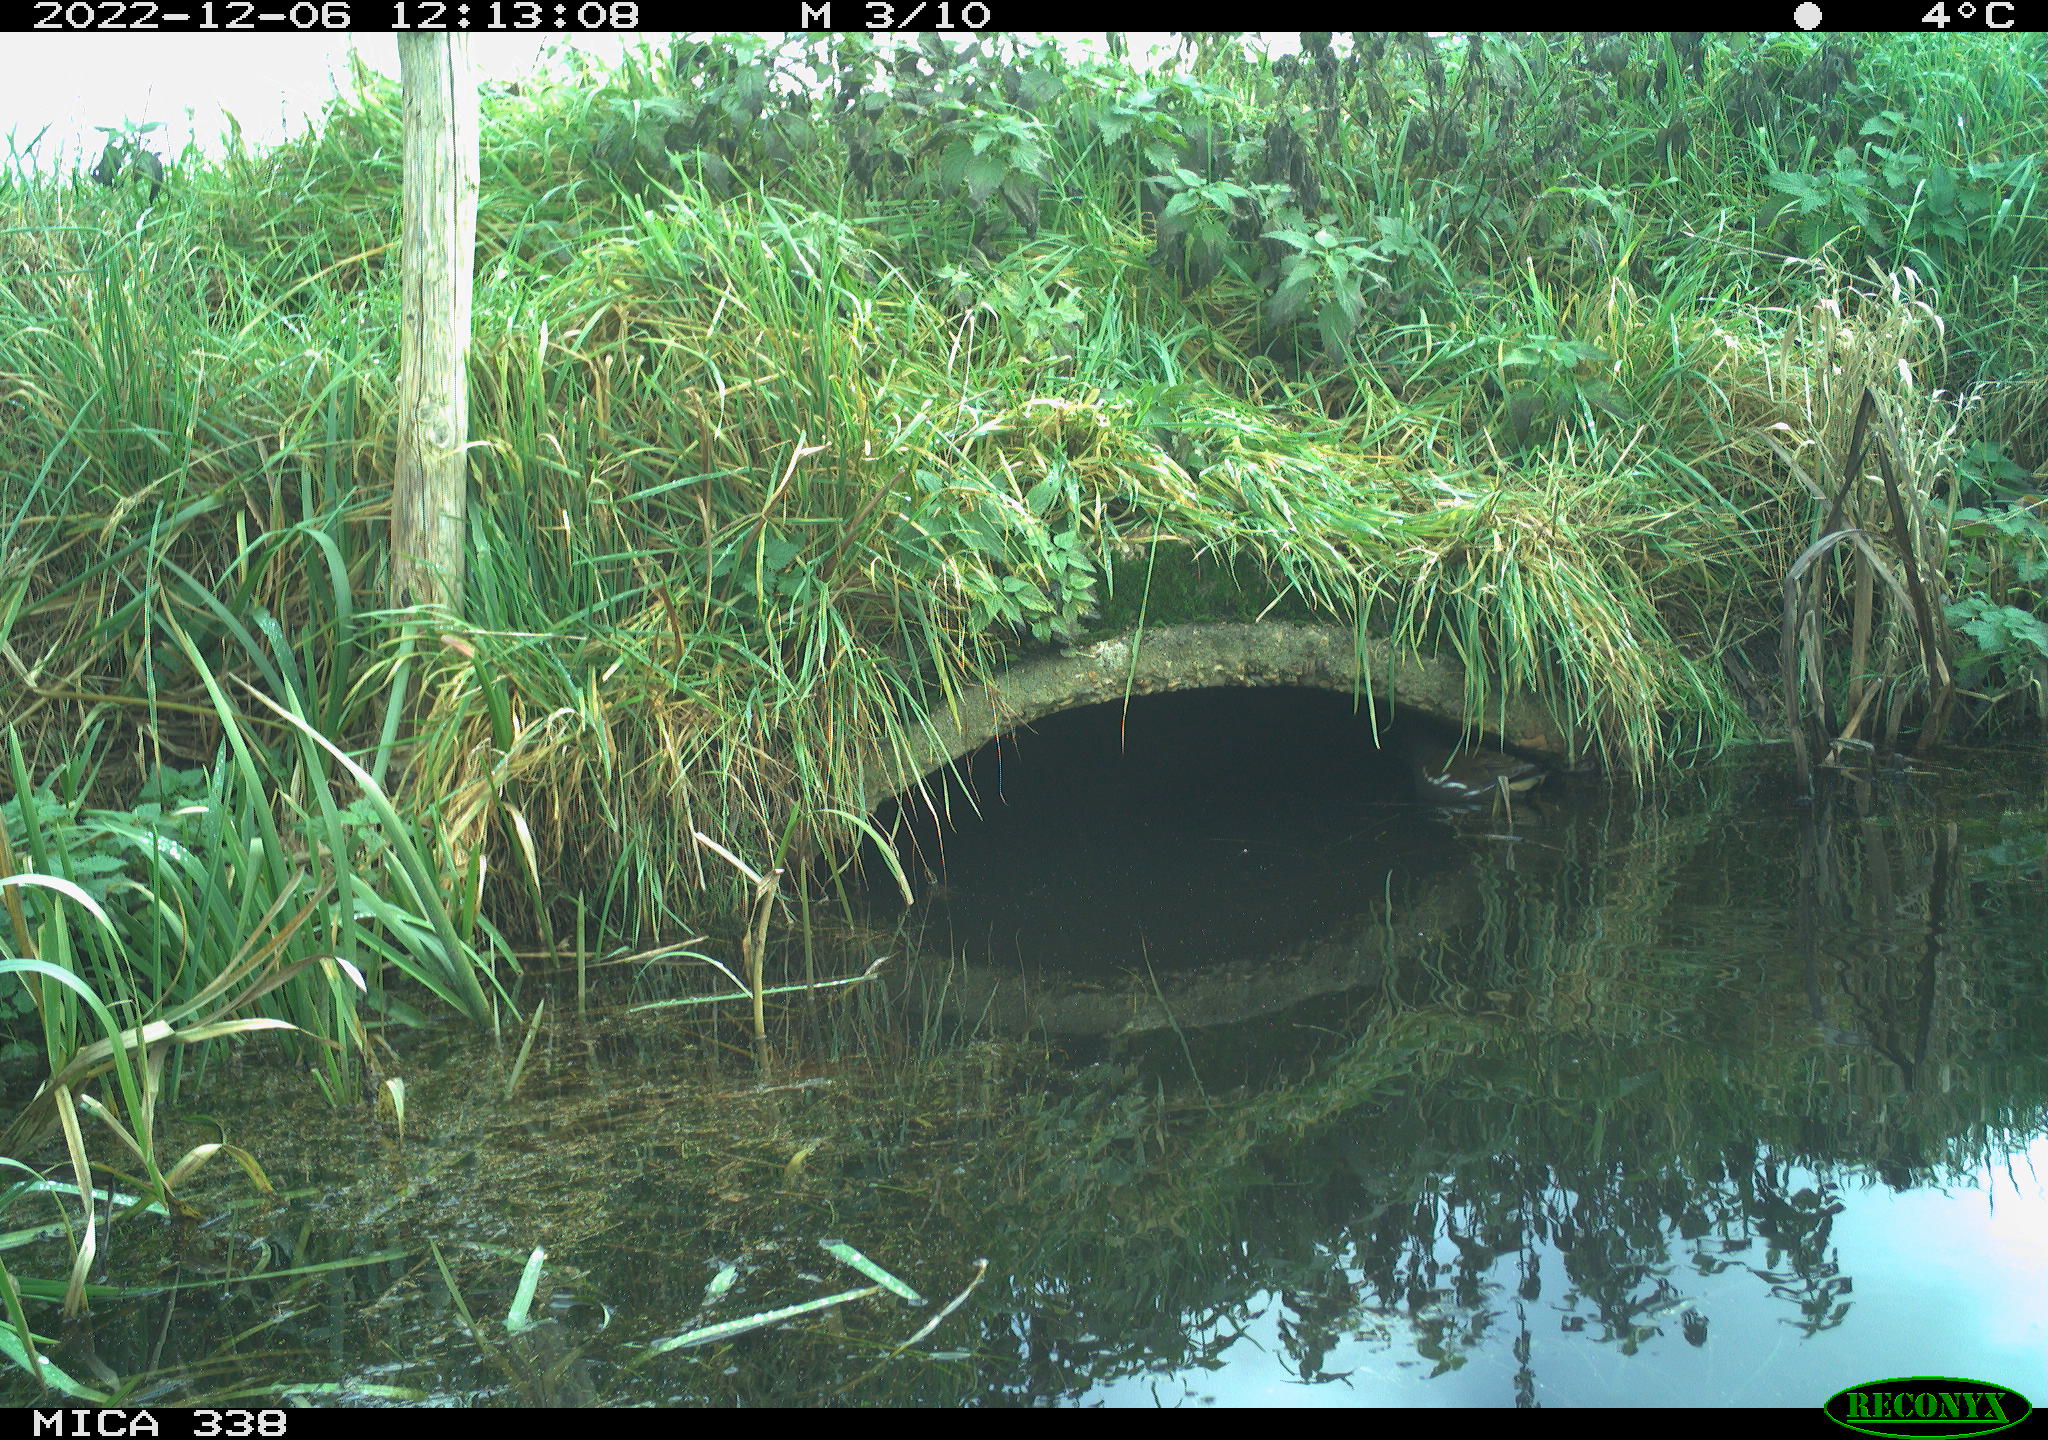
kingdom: Animalia
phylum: Chordata
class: Aves
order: Gruiformes
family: Rallidae
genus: Gallinula
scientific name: Gallinula chloropus
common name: Common moorhen
